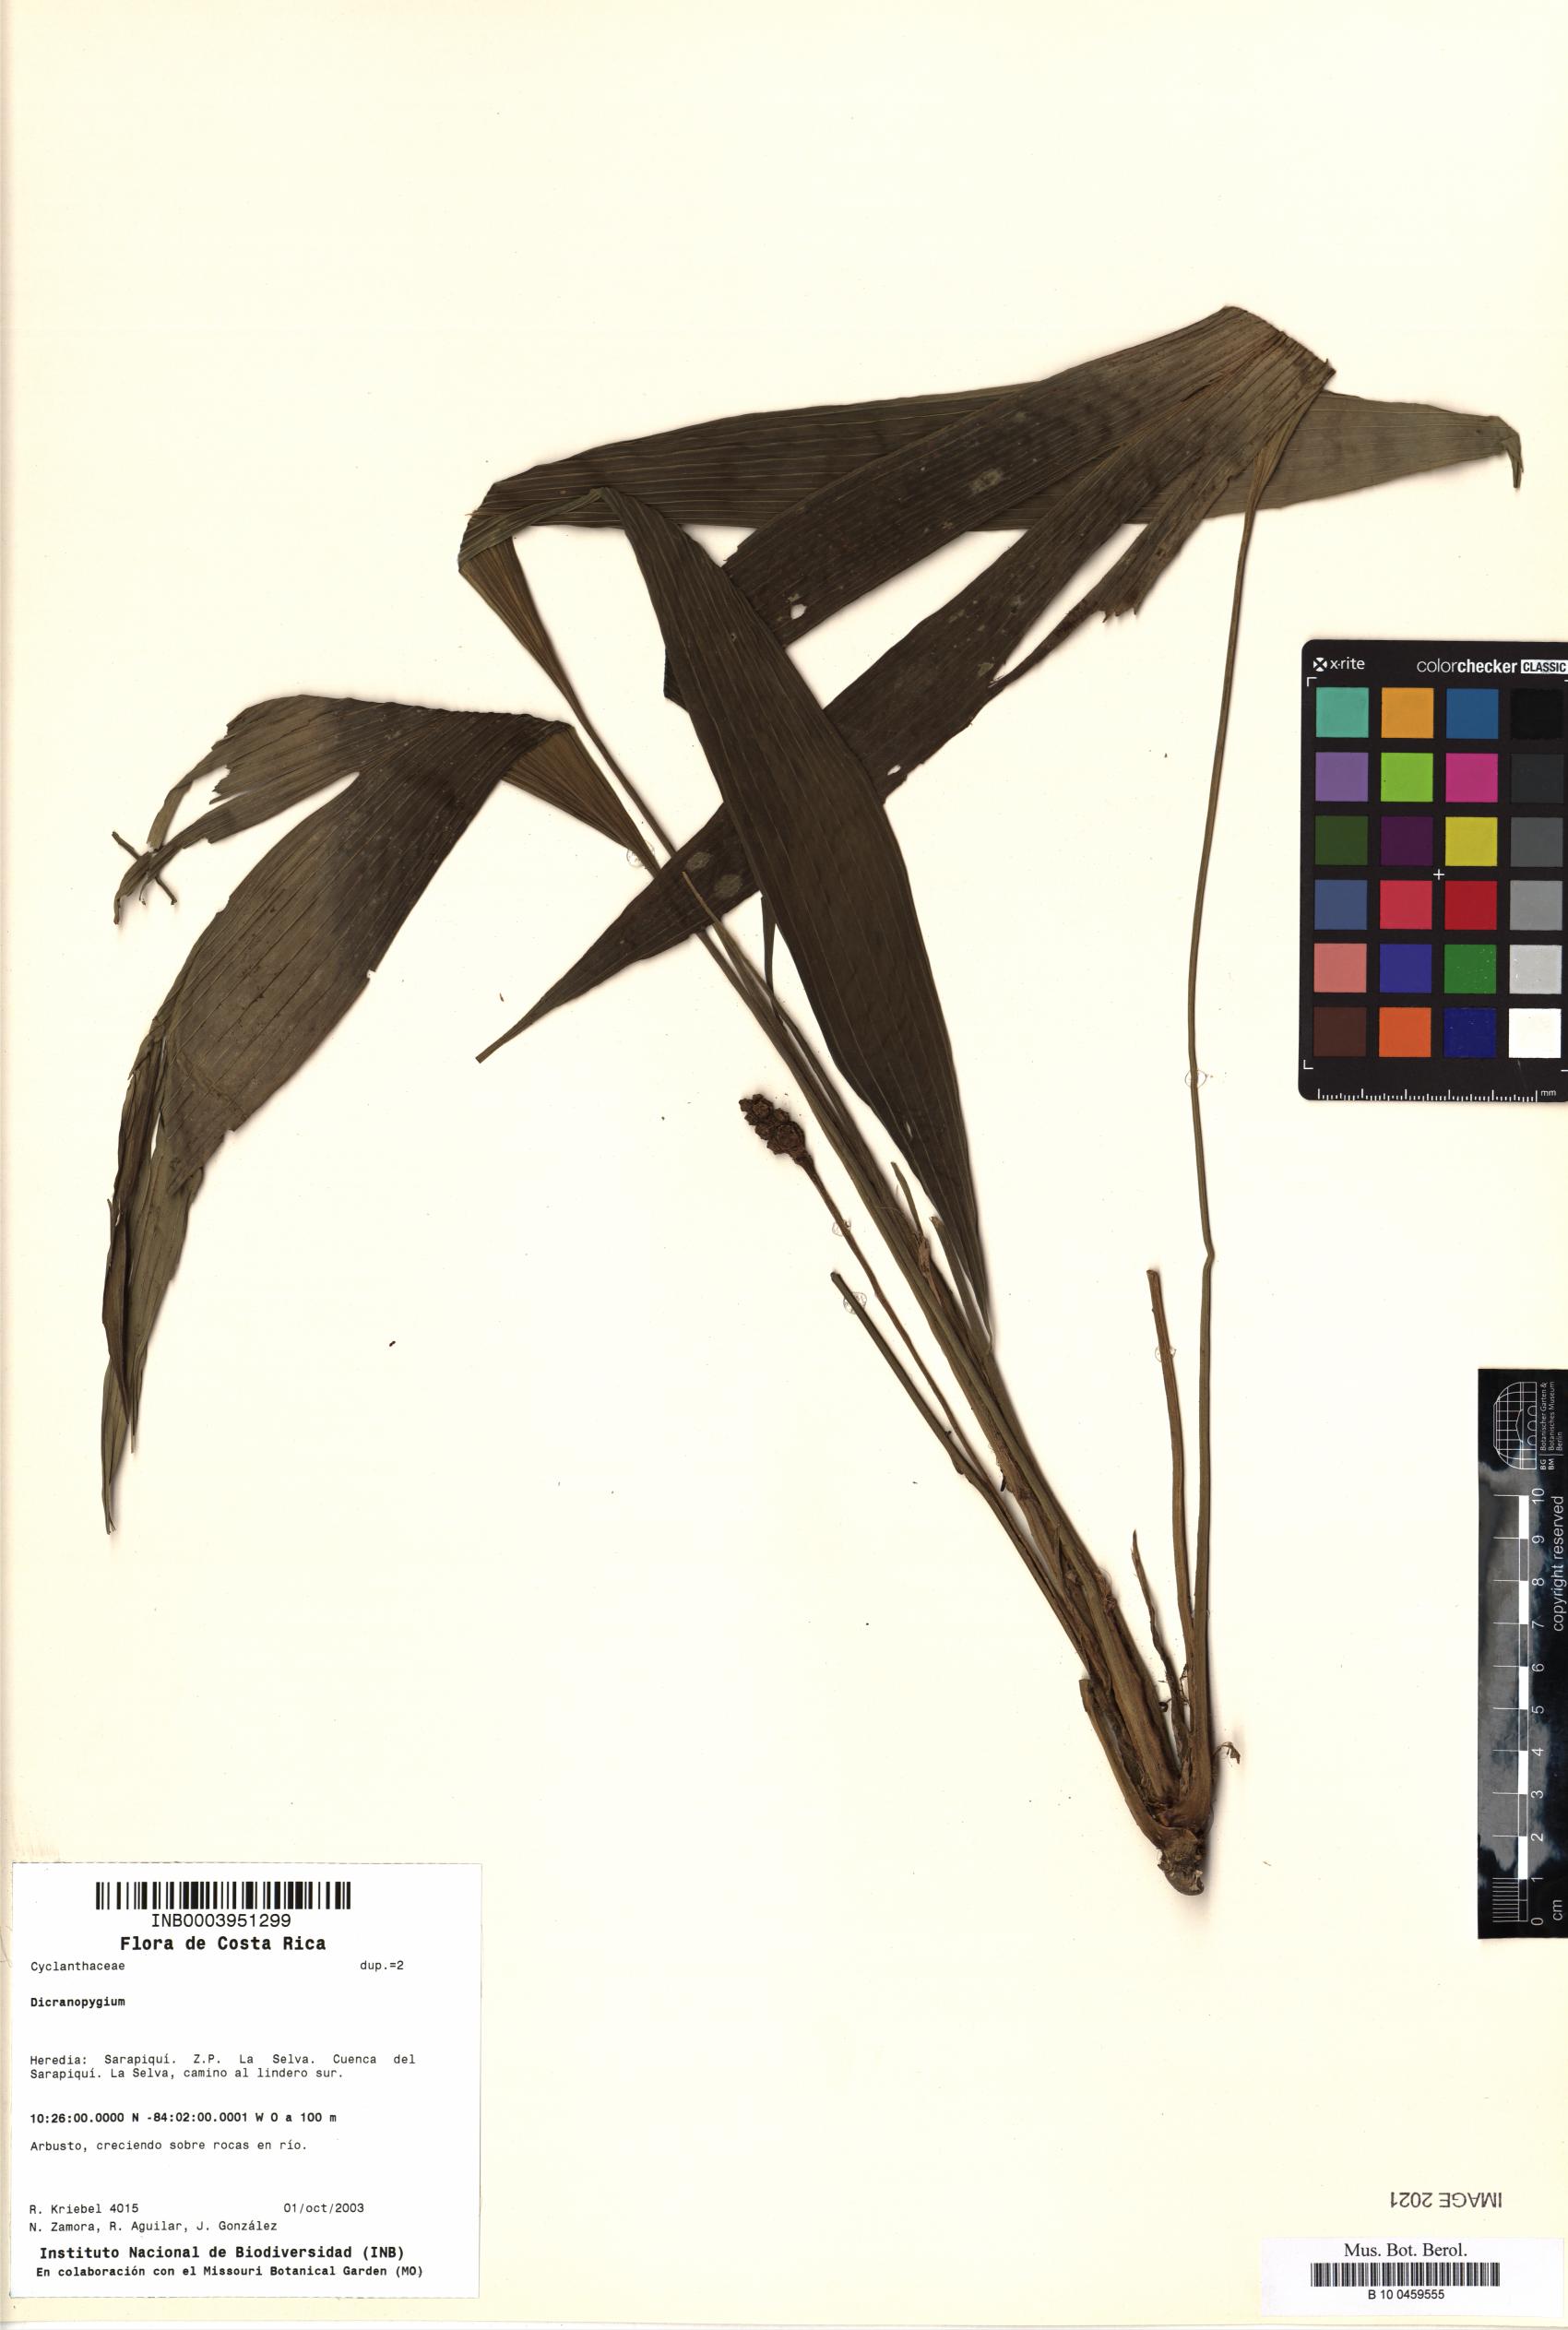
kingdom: Plantae
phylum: Tracheophyta
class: Liliopsida
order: Pandanales
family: Cyclanthaceae
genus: Dicranopygium
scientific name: Dicranopygium
